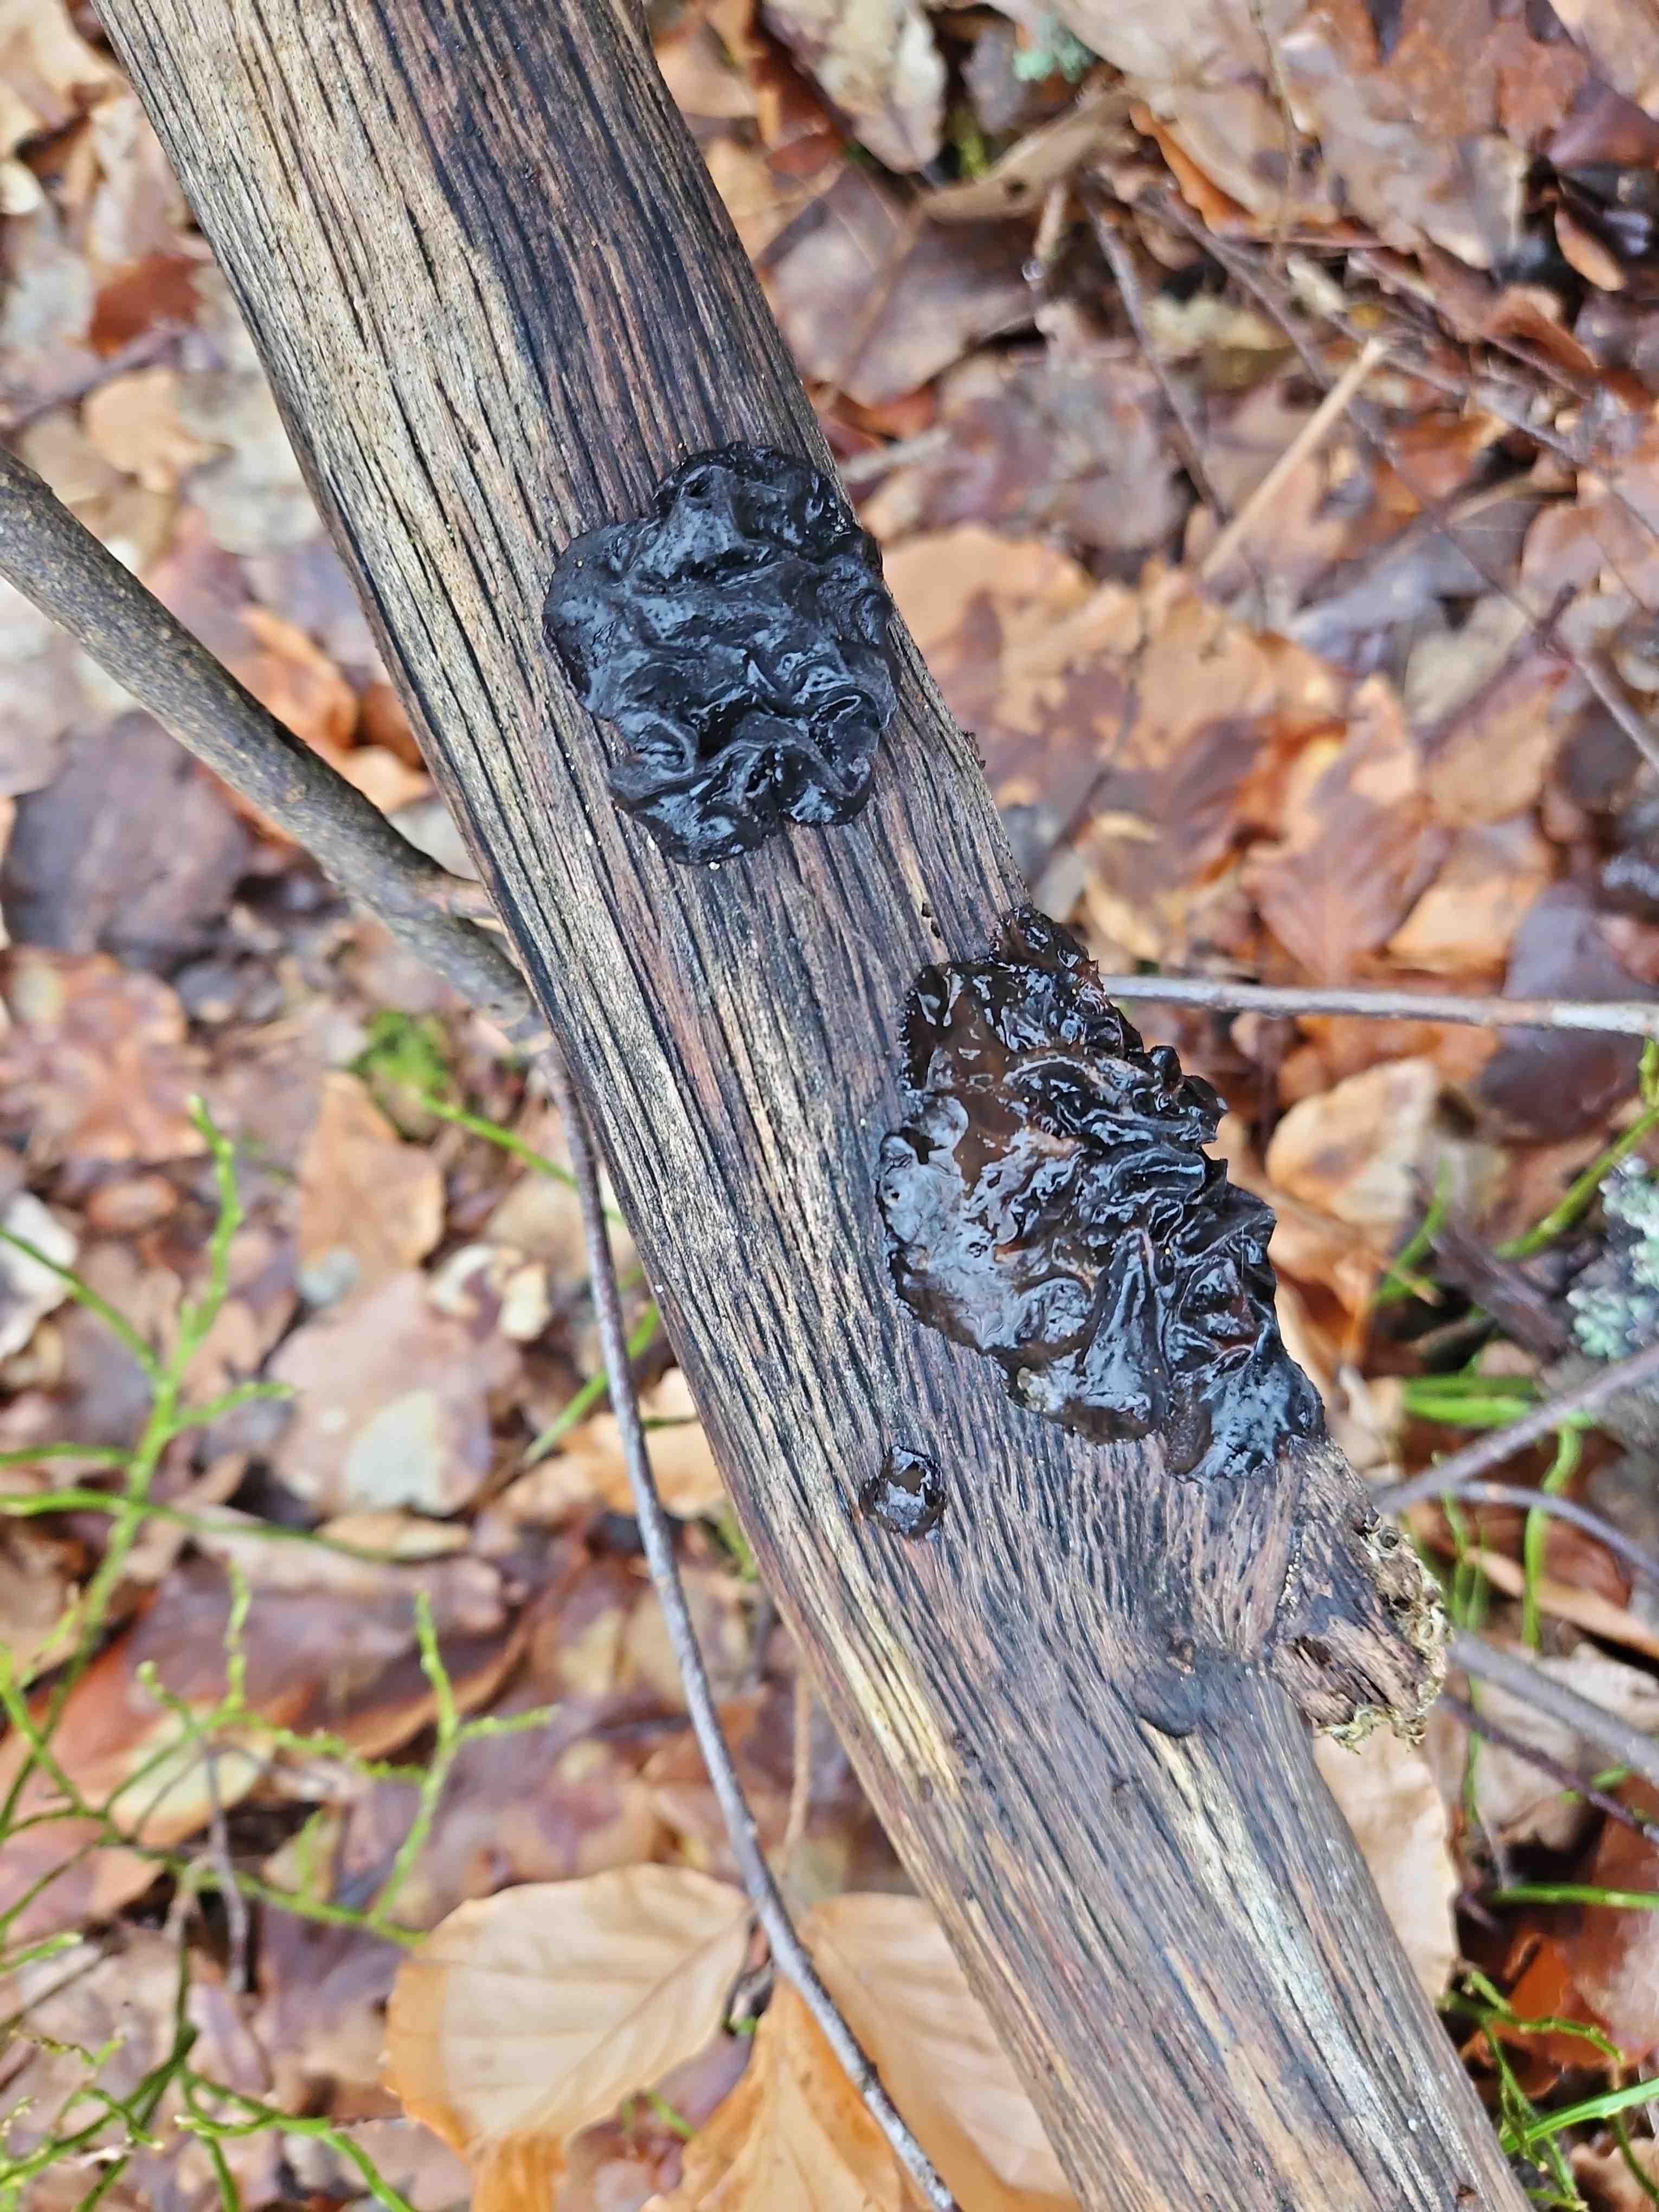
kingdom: Fungi
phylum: Basidiomycota
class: Agaricomycetes
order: Auriculariales
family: Auriculariaceae
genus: Exidia
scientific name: Exidia glandulosa
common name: ege-bævretop
